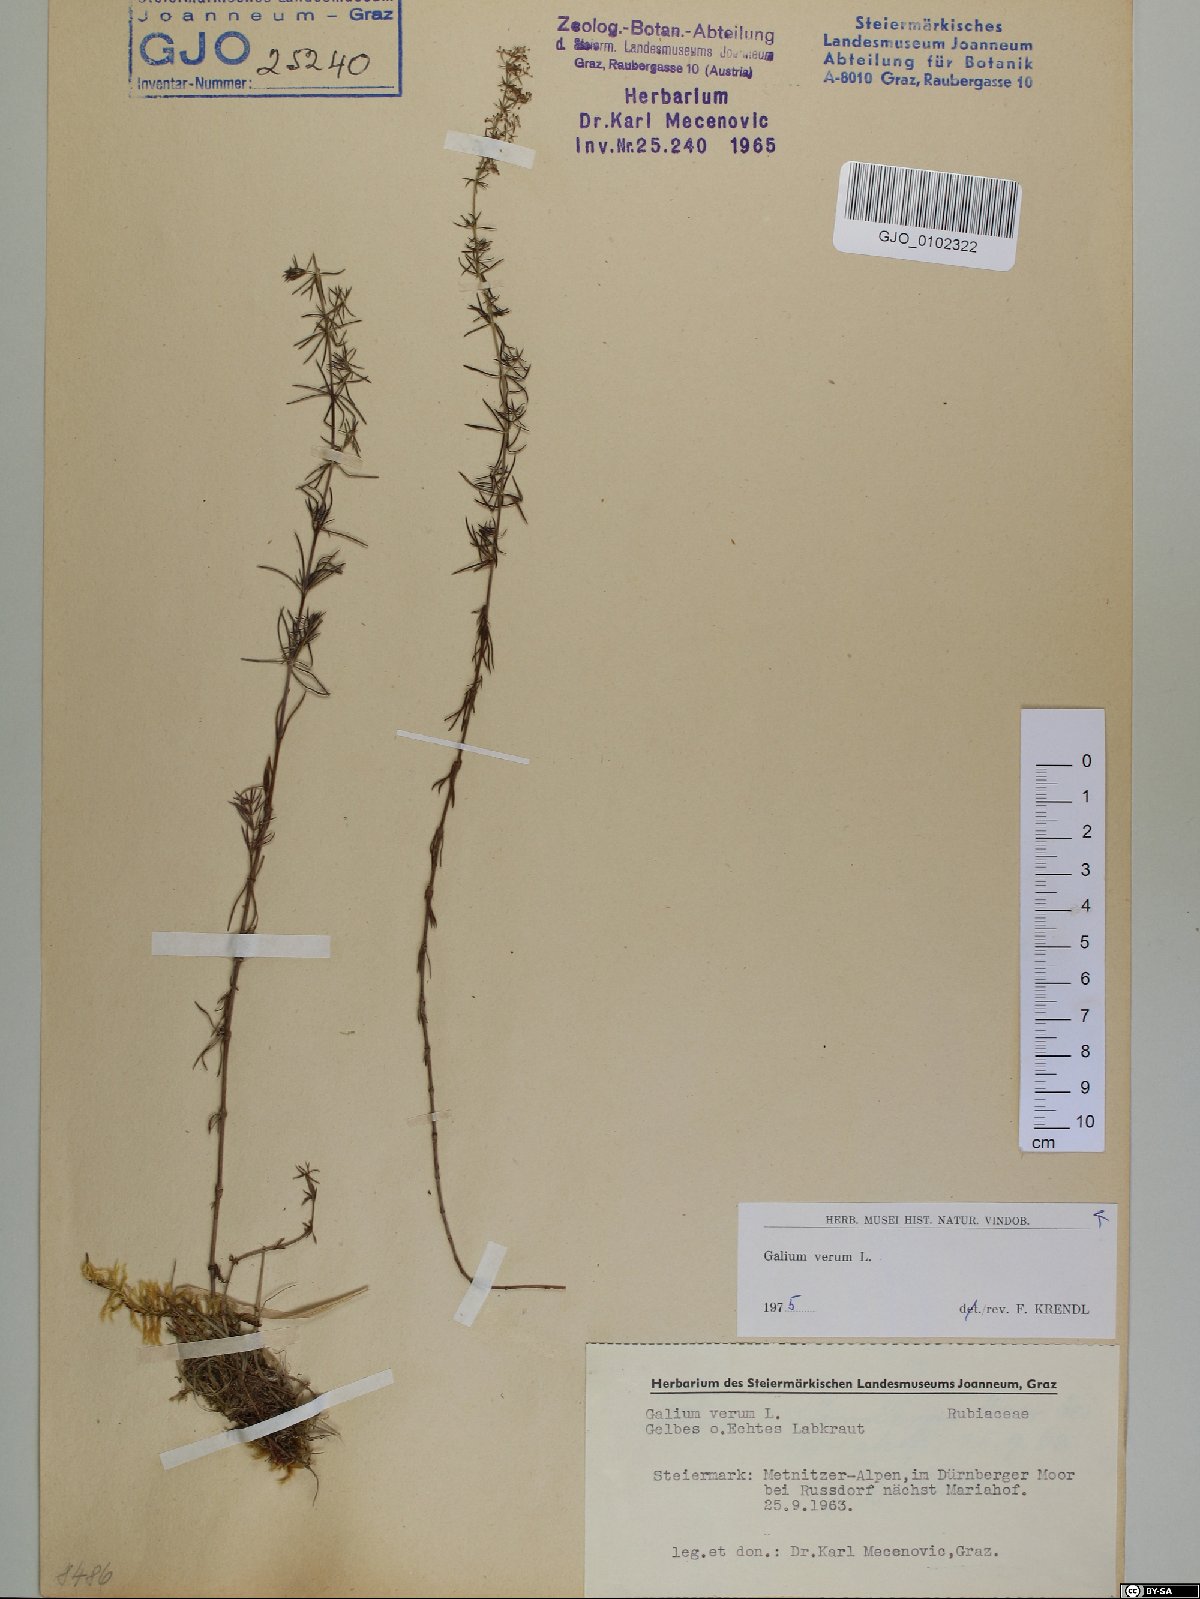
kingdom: Plantae
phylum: Tracheophyta
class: Magnoliopsida
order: Gentianales
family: Rubiaceae
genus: Galium
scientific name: Galium verum
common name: Lady's bedstraw
